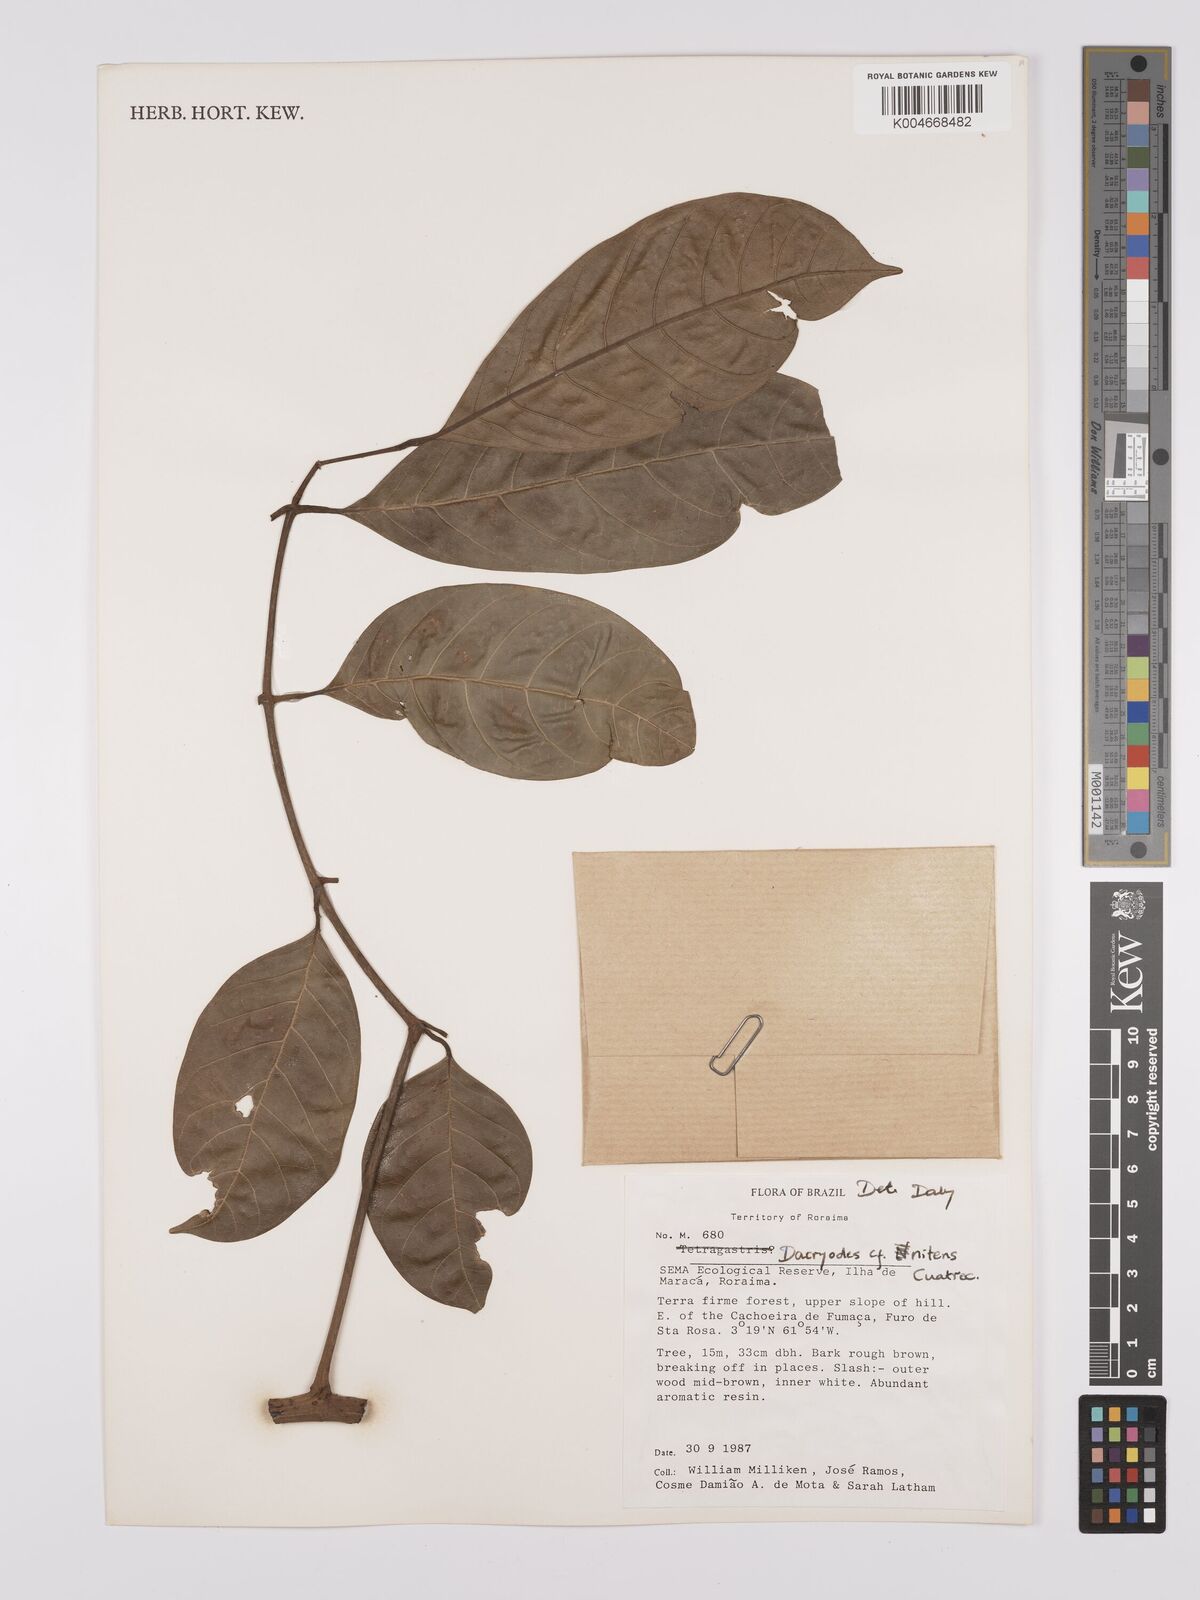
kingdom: Plantae
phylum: Tracheophyta
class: Magnoliopsida
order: Sapindales
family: Burseraceae
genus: Dacryodes
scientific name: Dacryodes nitens
